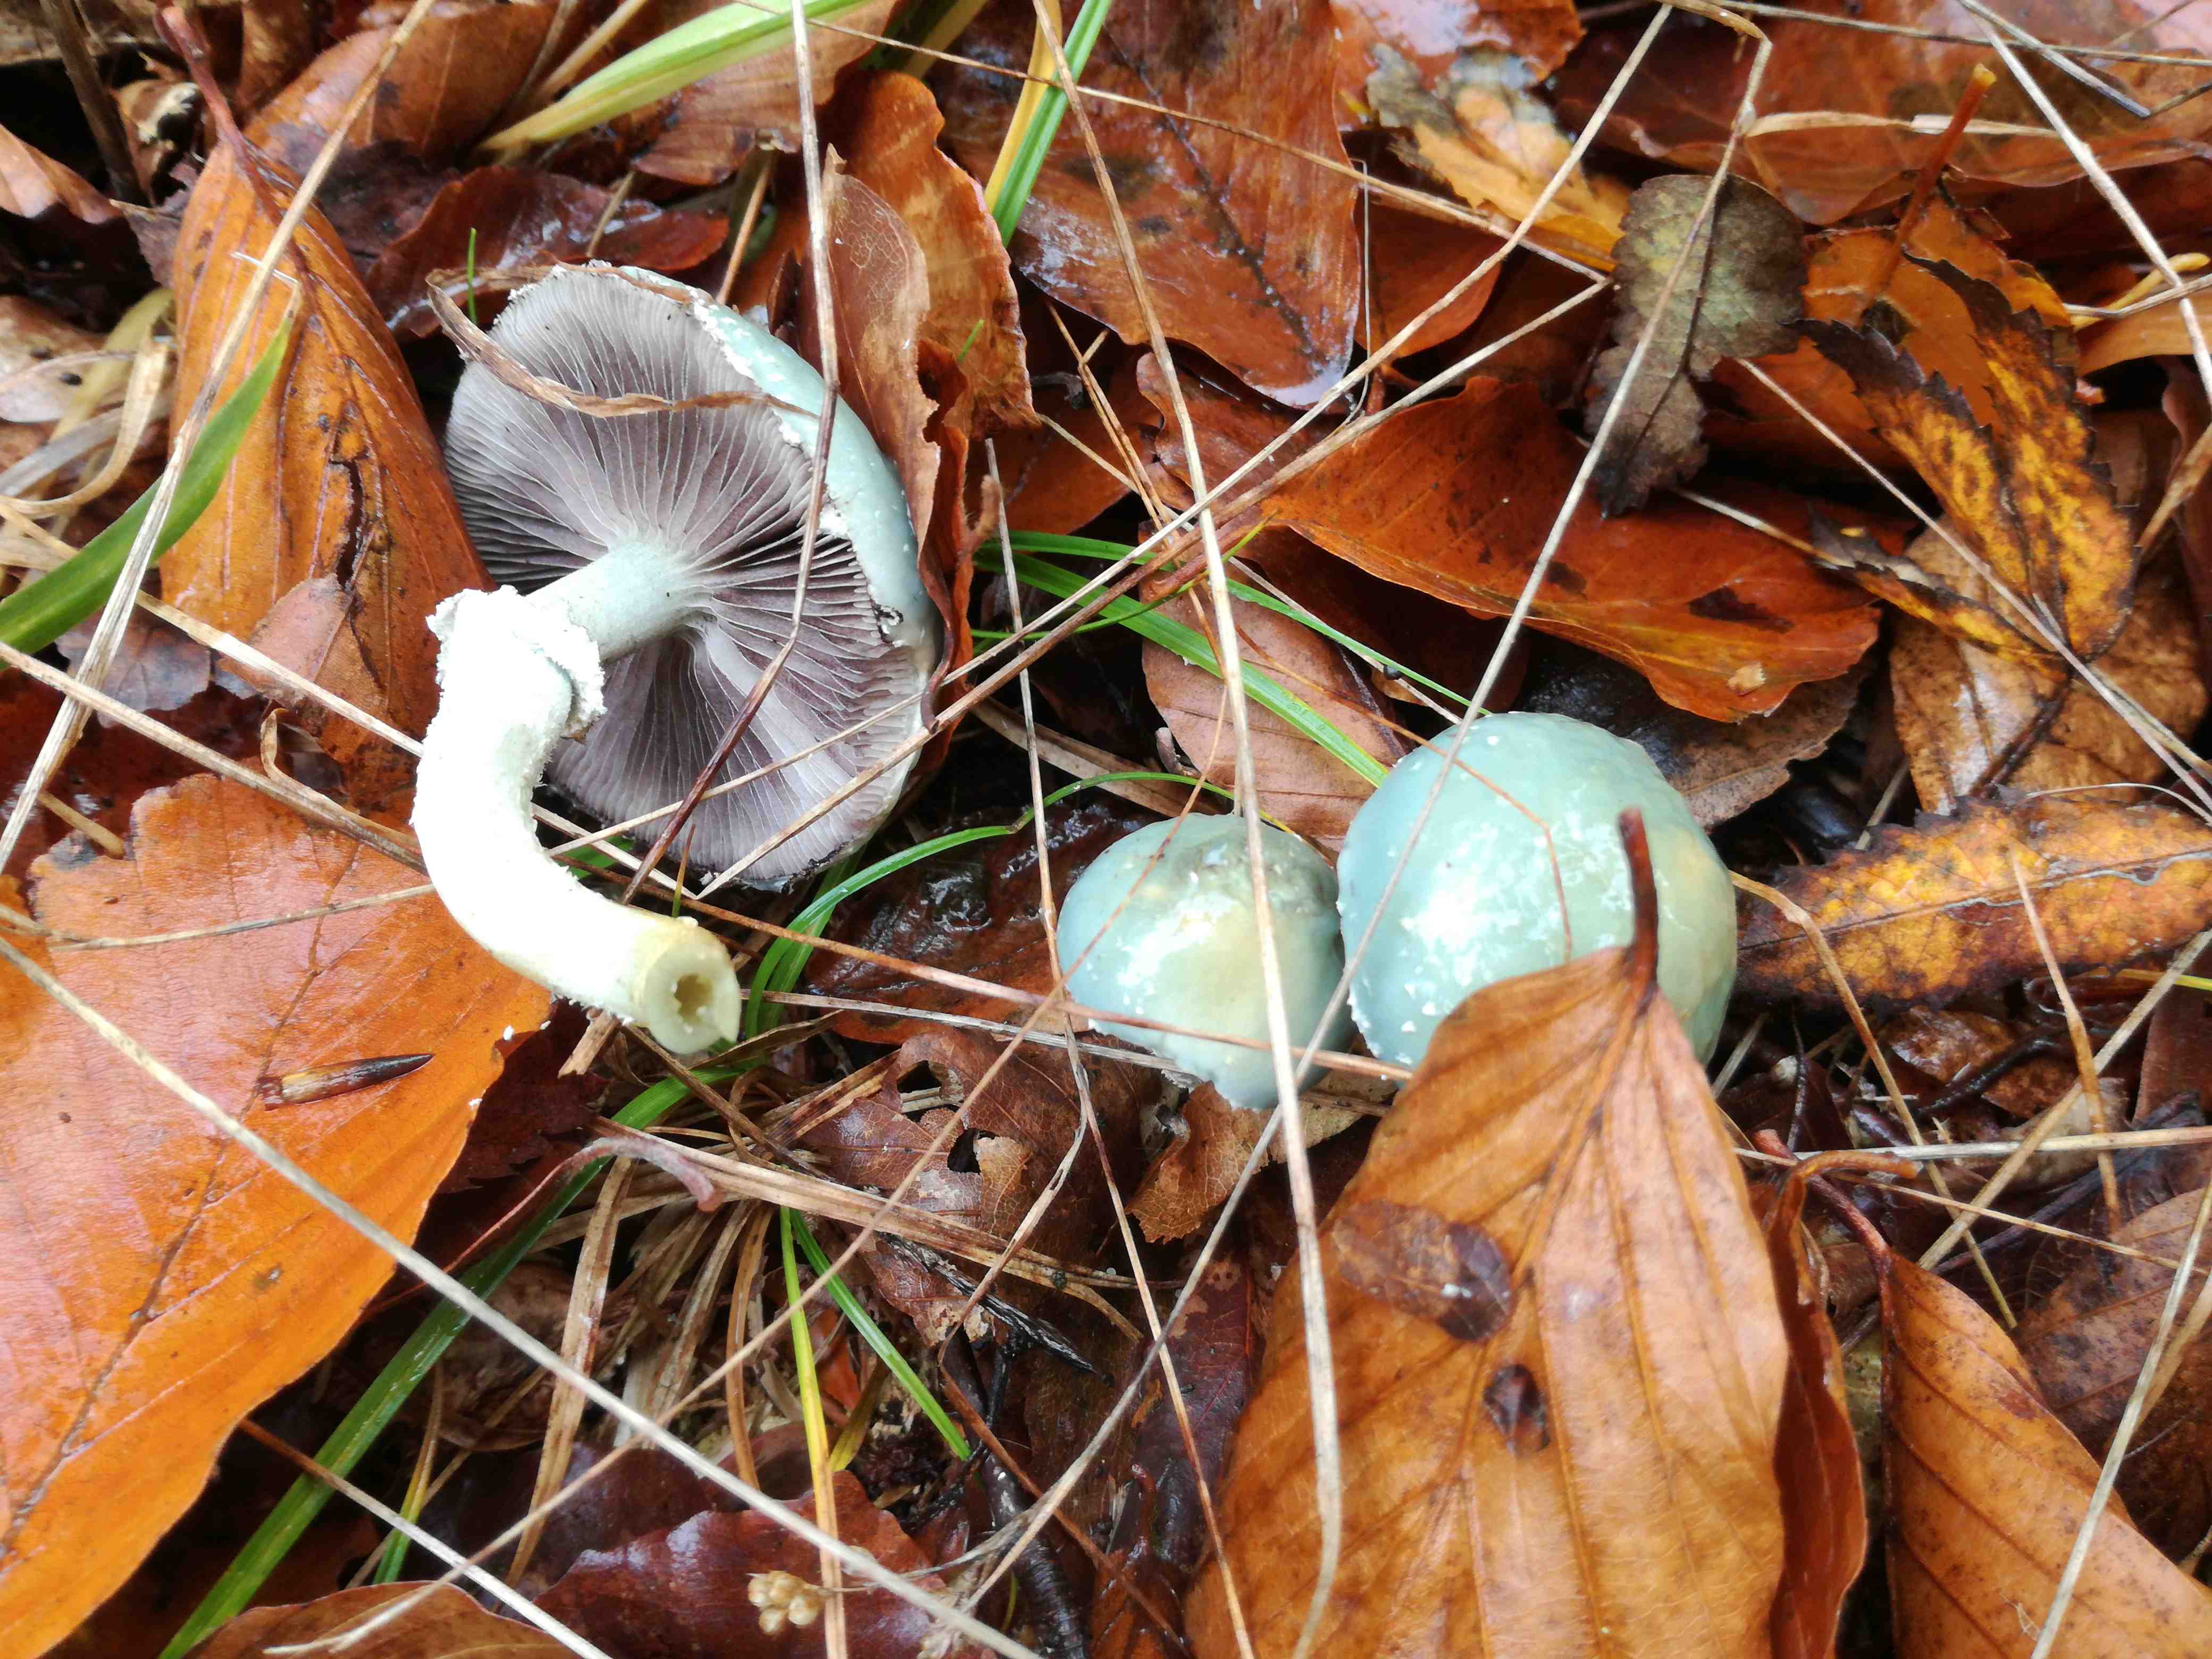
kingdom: Fungi
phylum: Basidiomycota
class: Agaricomycetes
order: Agaricales
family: Strophariaceae
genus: Stropharia
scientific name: Stropharia aeruginosa
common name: spanskgrøn bredblad
